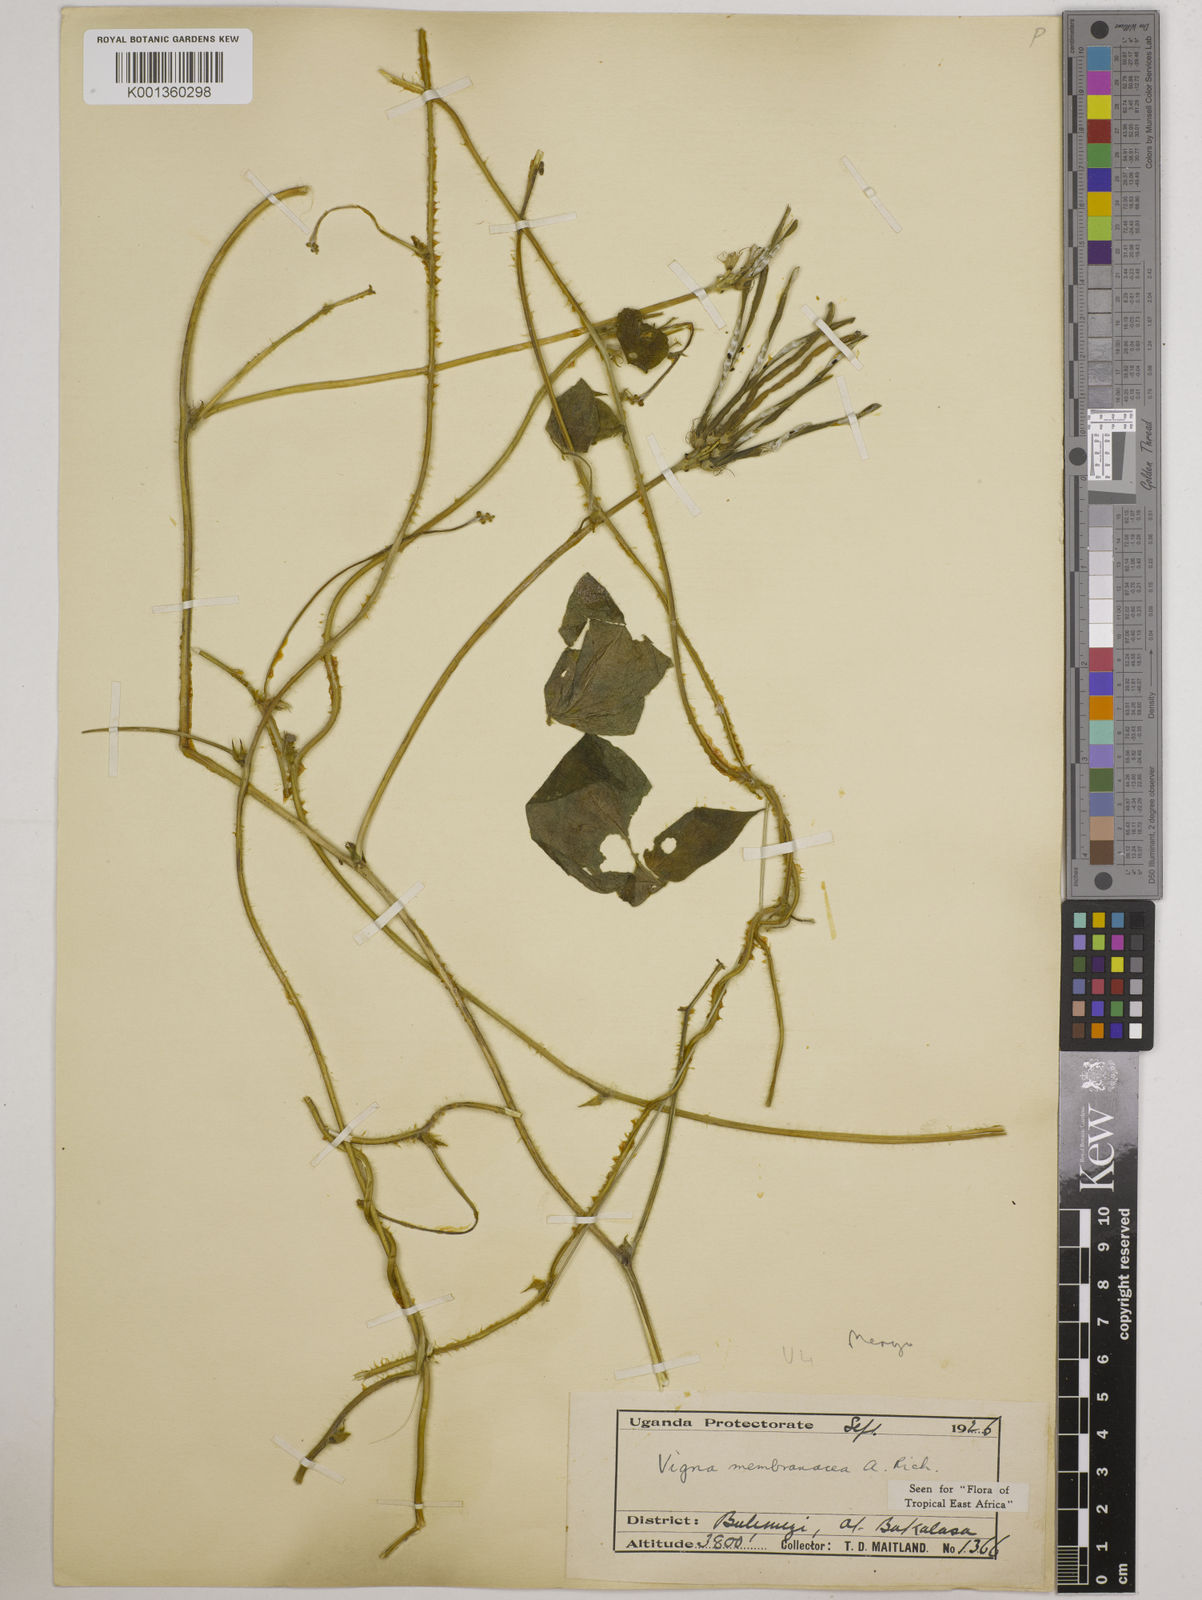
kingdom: Plantae
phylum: Tracheophyta
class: Magnoliopsida
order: Fabales
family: Fabaceae
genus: Vigna
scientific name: Vigna membranacea
